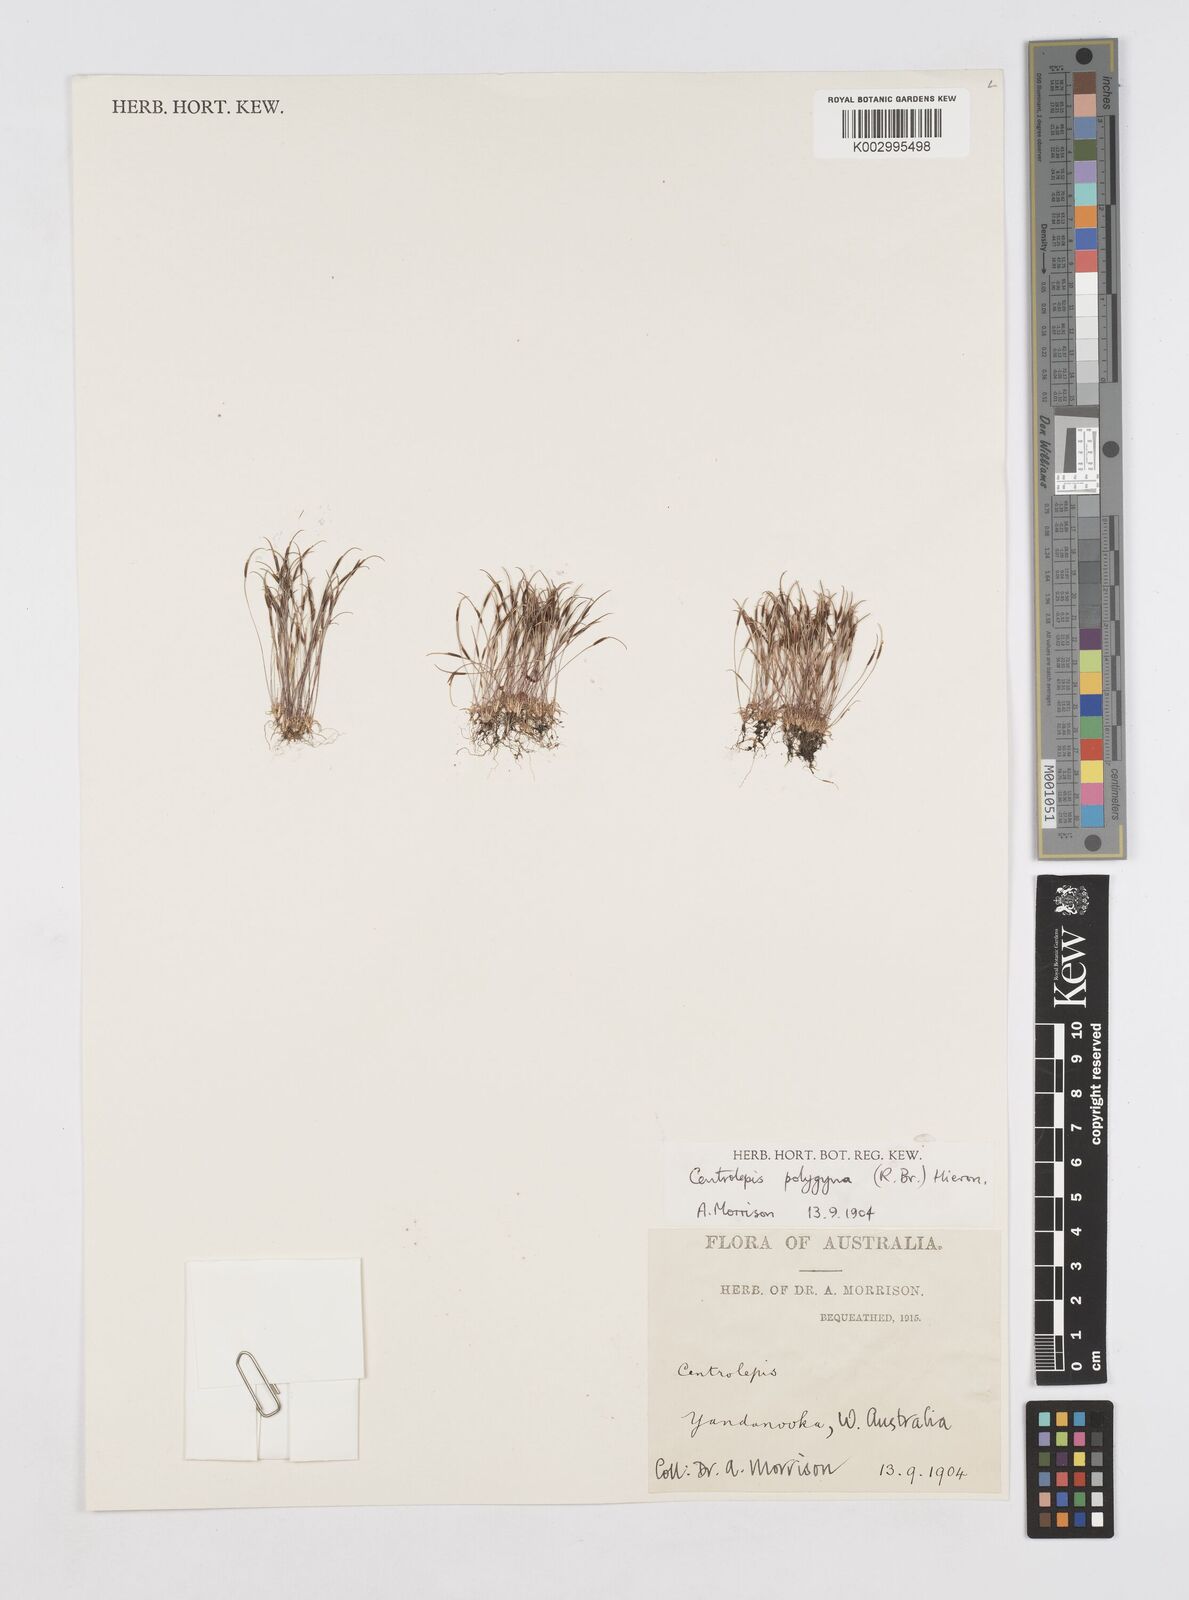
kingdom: Plantae
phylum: Tracheophyta
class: Liliopsida
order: Poales
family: Restionaceae
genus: Centrolepis
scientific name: Centrolepis polygyna
